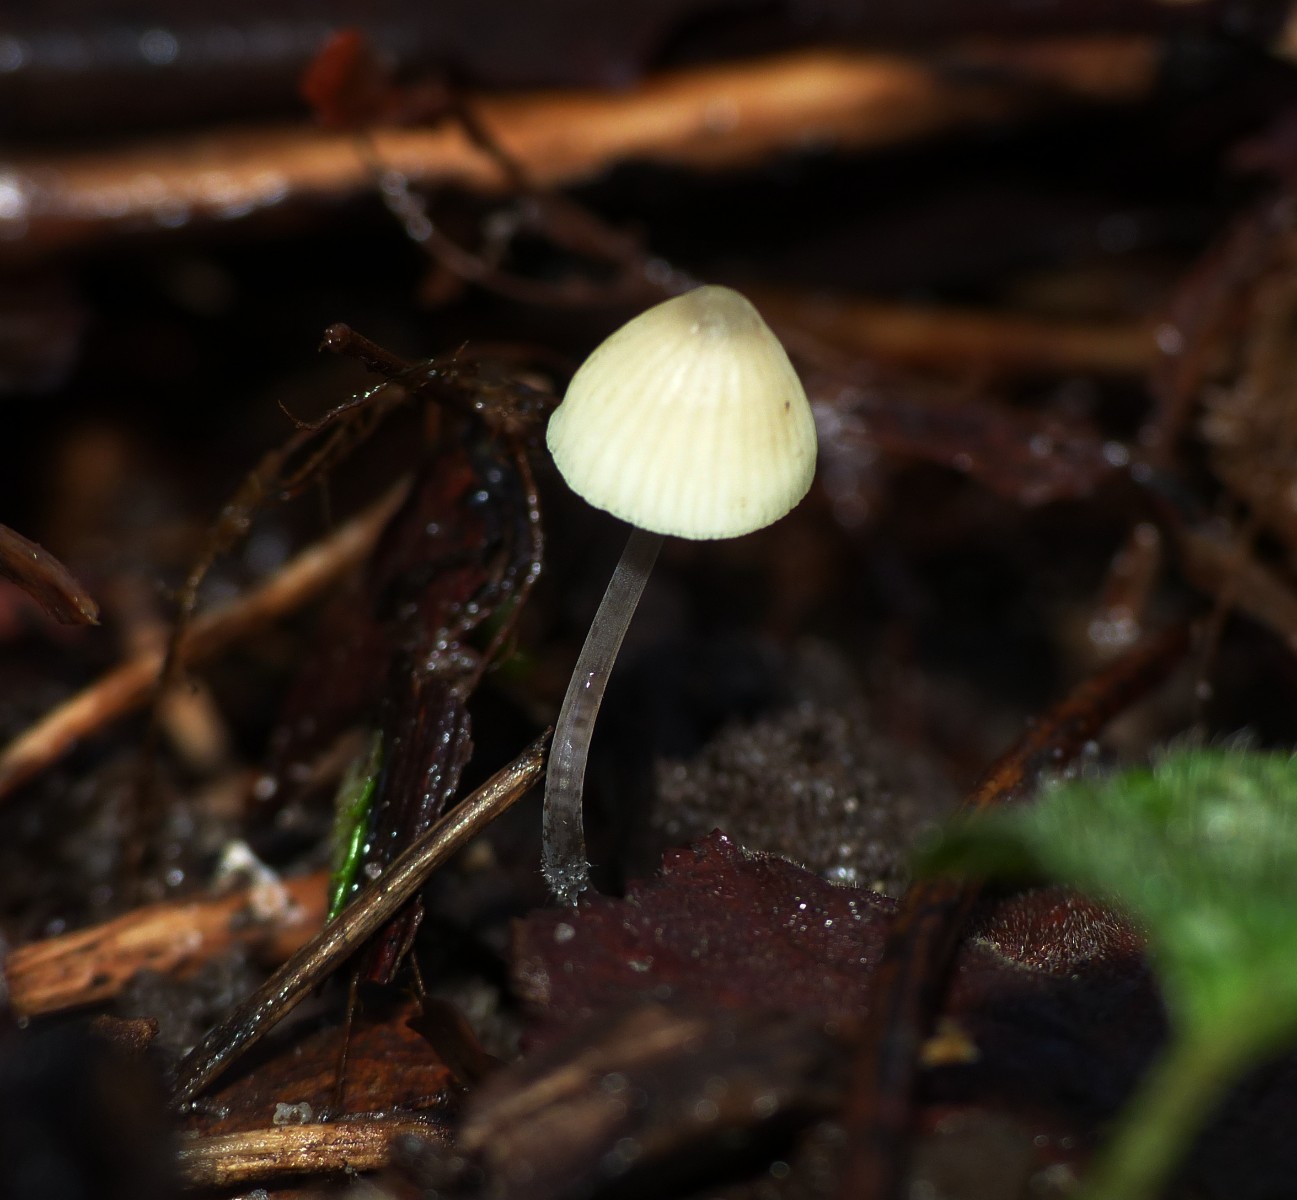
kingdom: Fungi
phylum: Basidiomycota
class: Agaricomycetes
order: Agaricales
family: Mycenaceae
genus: Mycena
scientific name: Mycena arcangeliana
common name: oliven-huesvamp
